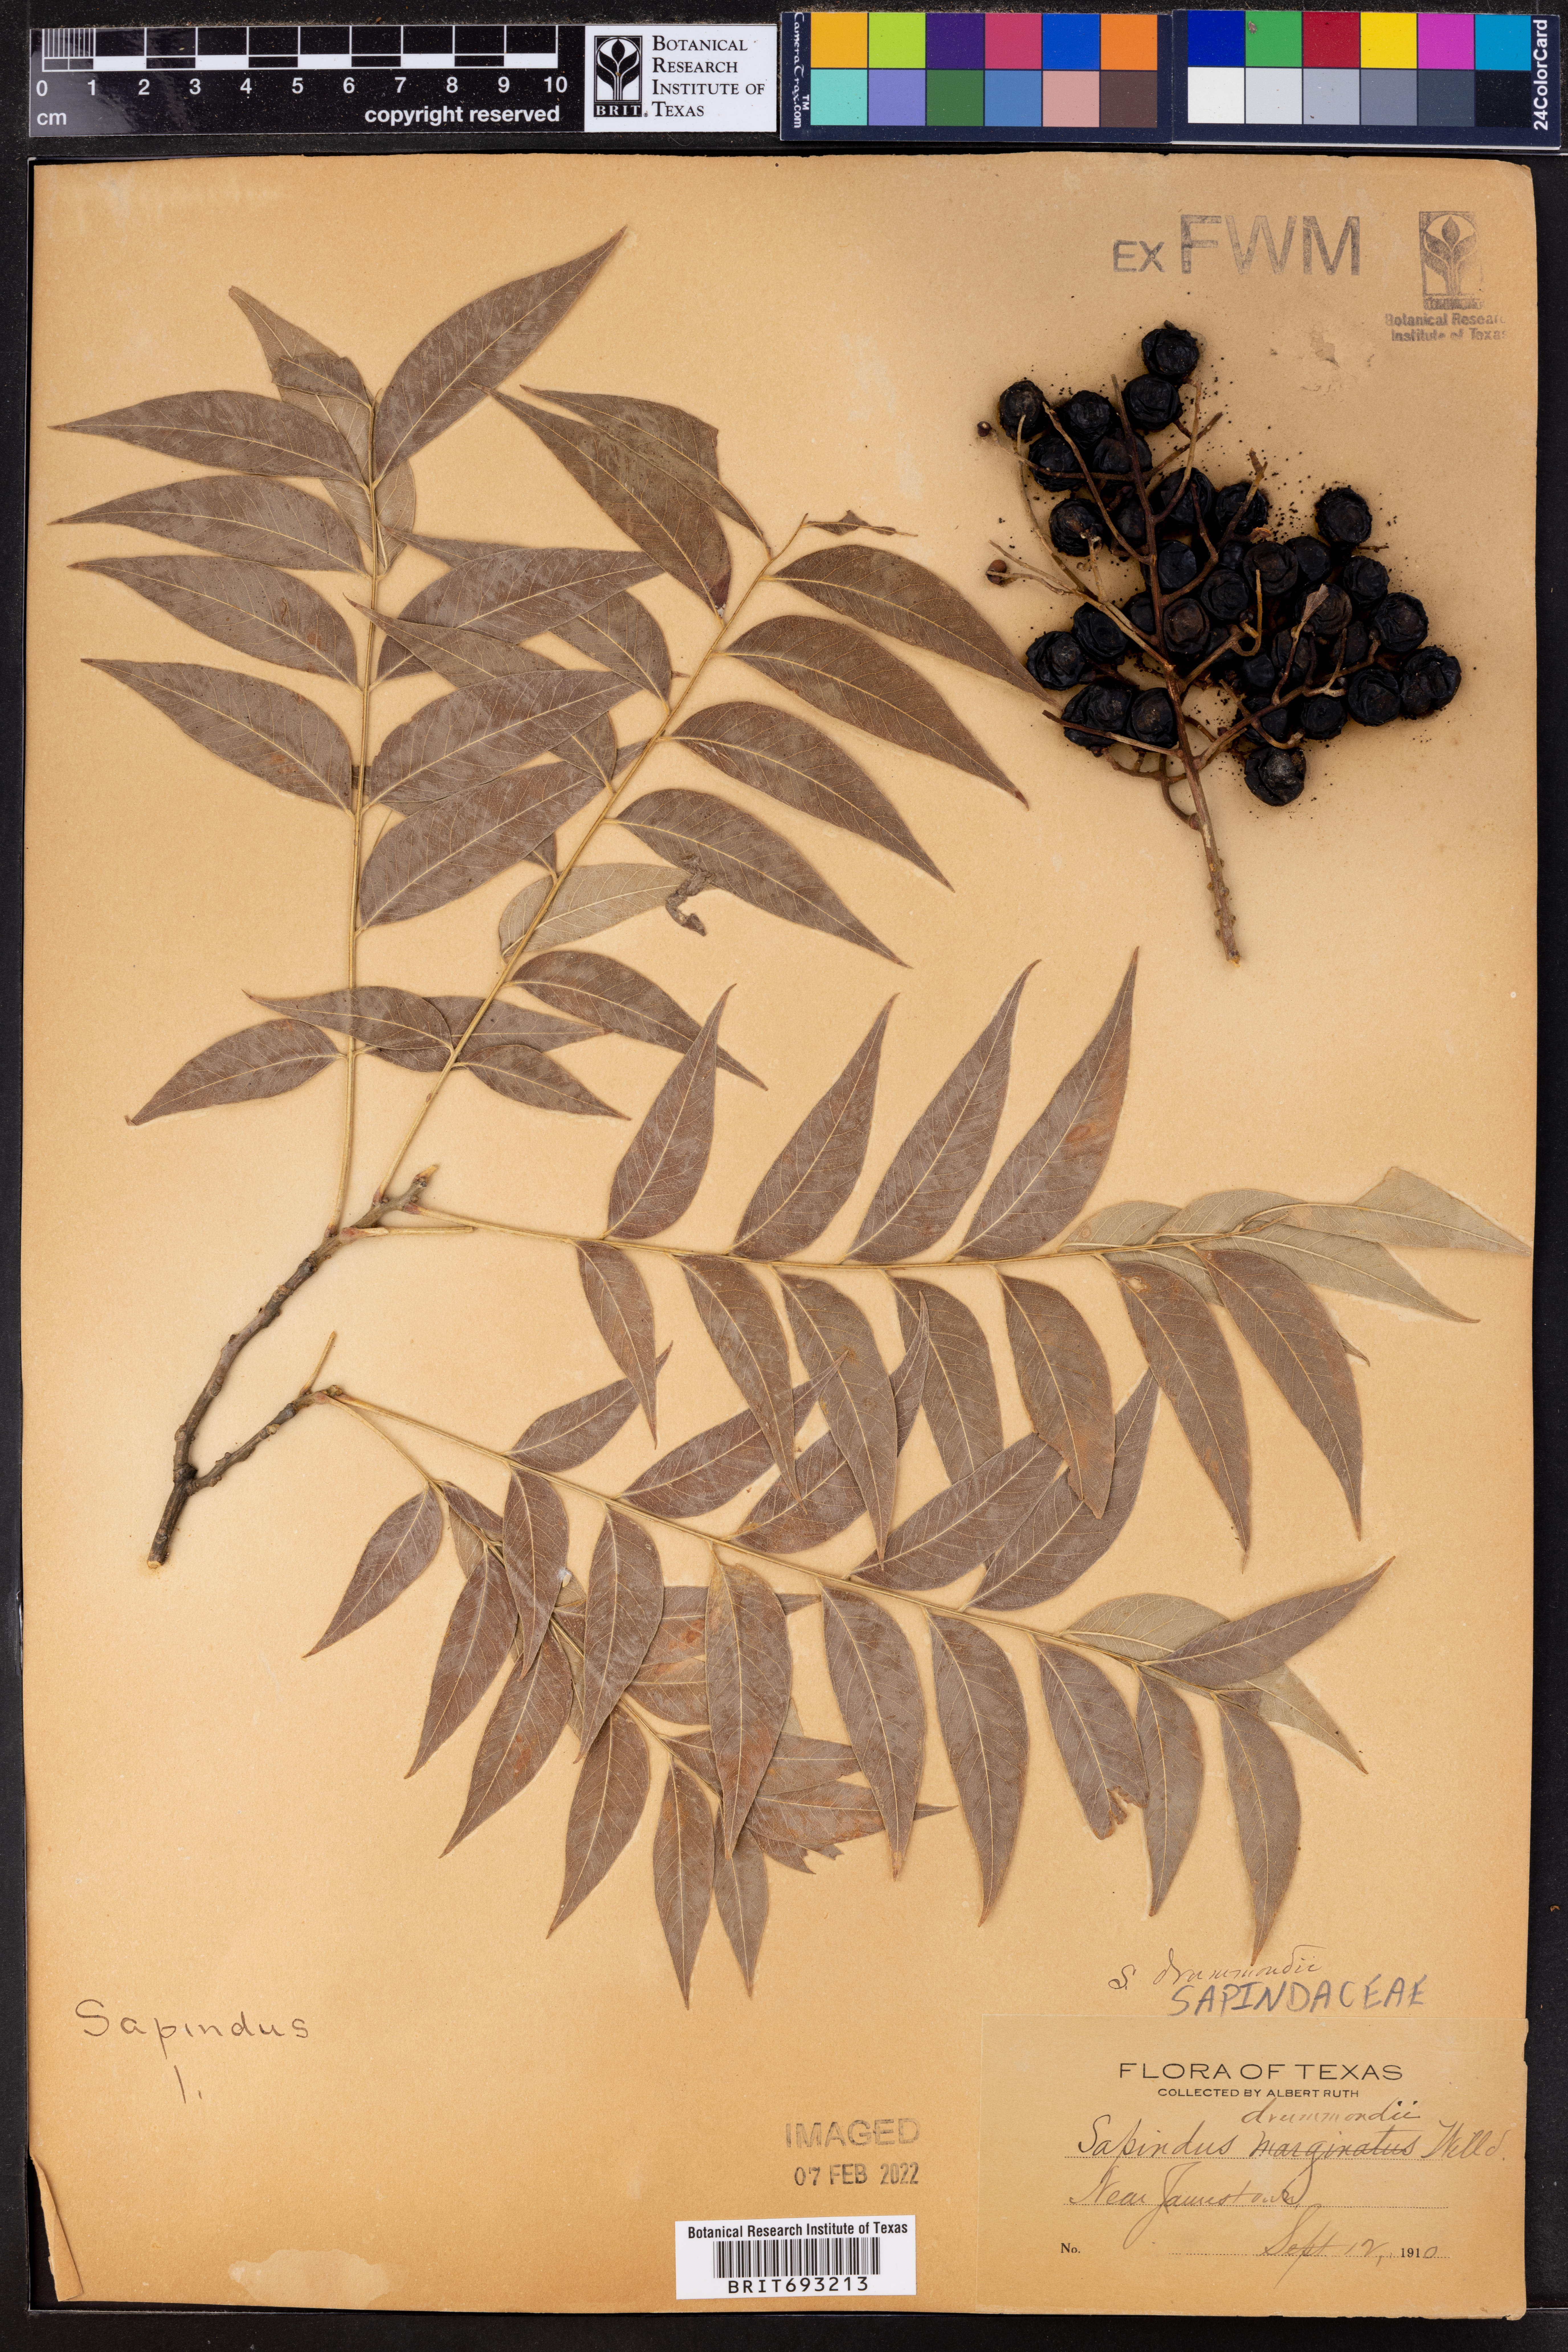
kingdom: Plantae
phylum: Tracheophyta
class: Magnoliopsida
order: Sapindales
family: Sapindaceae
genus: Sapindus
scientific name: Sapindus drummondii
